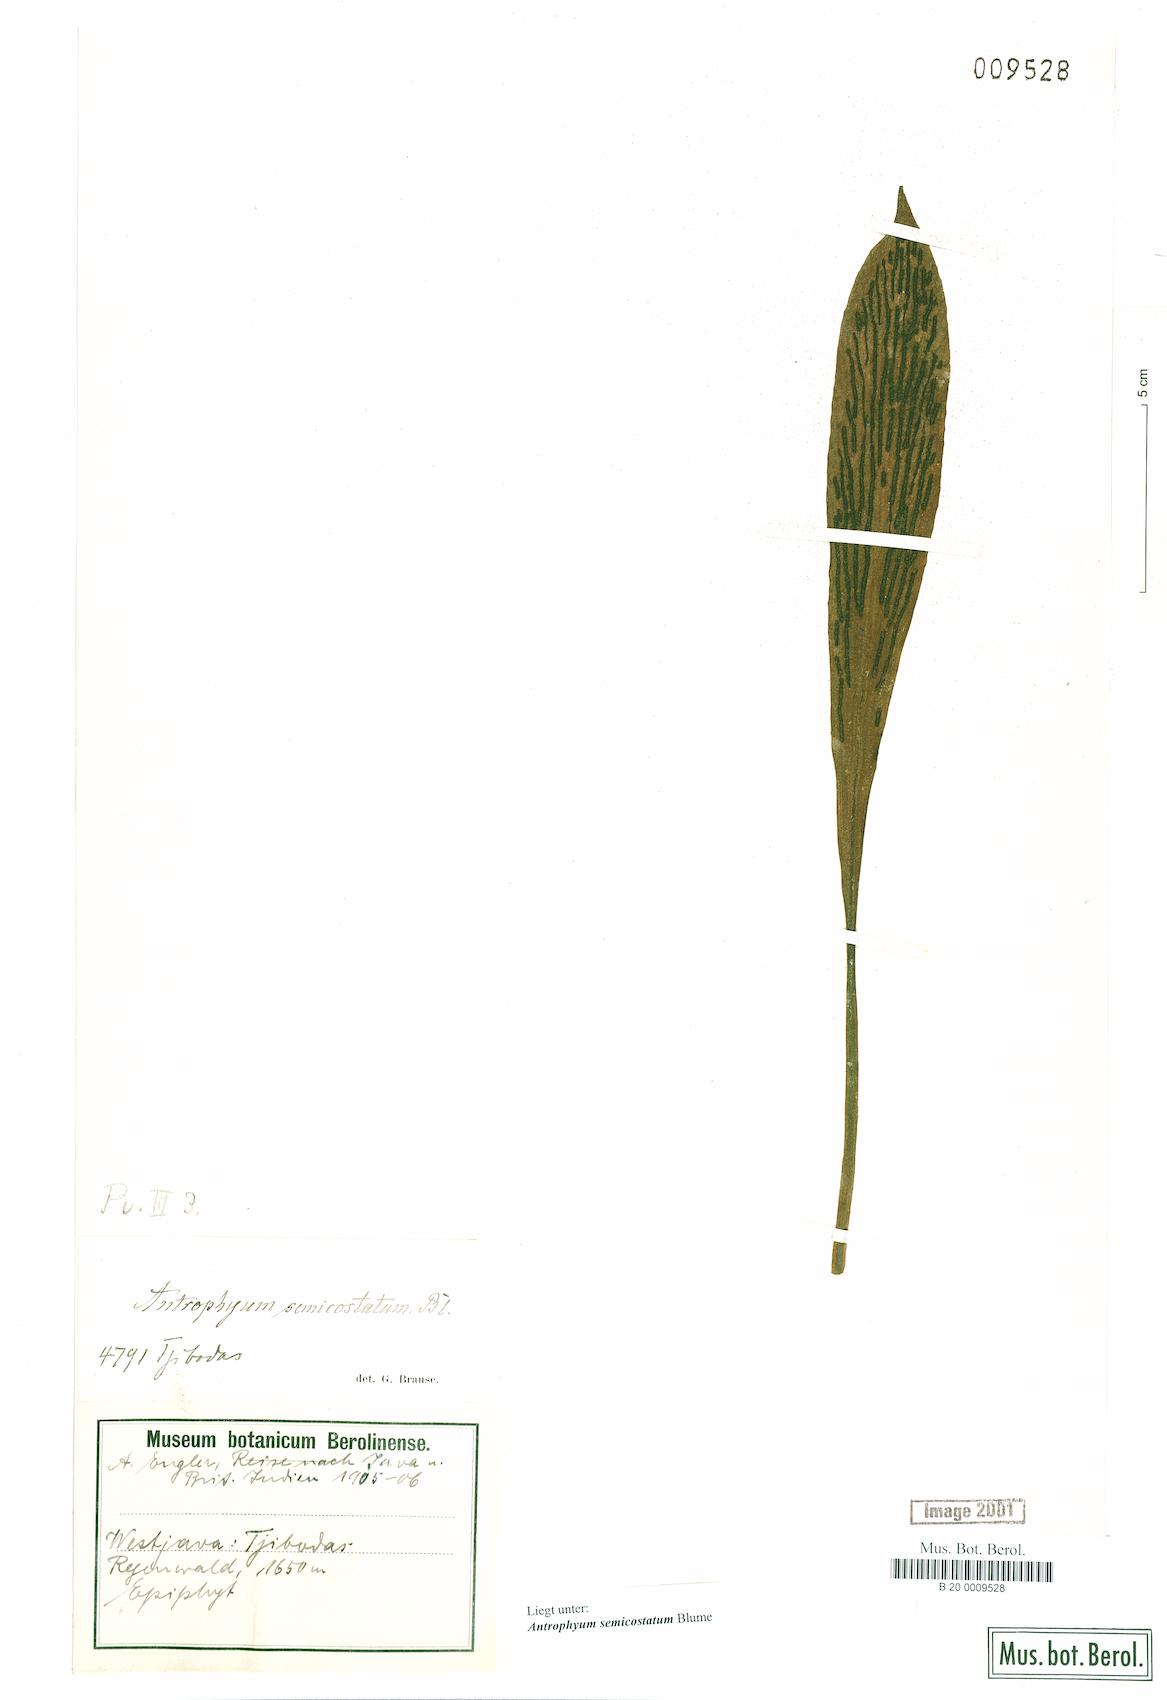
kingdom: Plantae
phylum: Tracheophyta
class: Polypodiopsida
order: Polypodiales
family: Pteridaceae
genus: Antrophyum
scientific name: Antrophyum semicostatum
